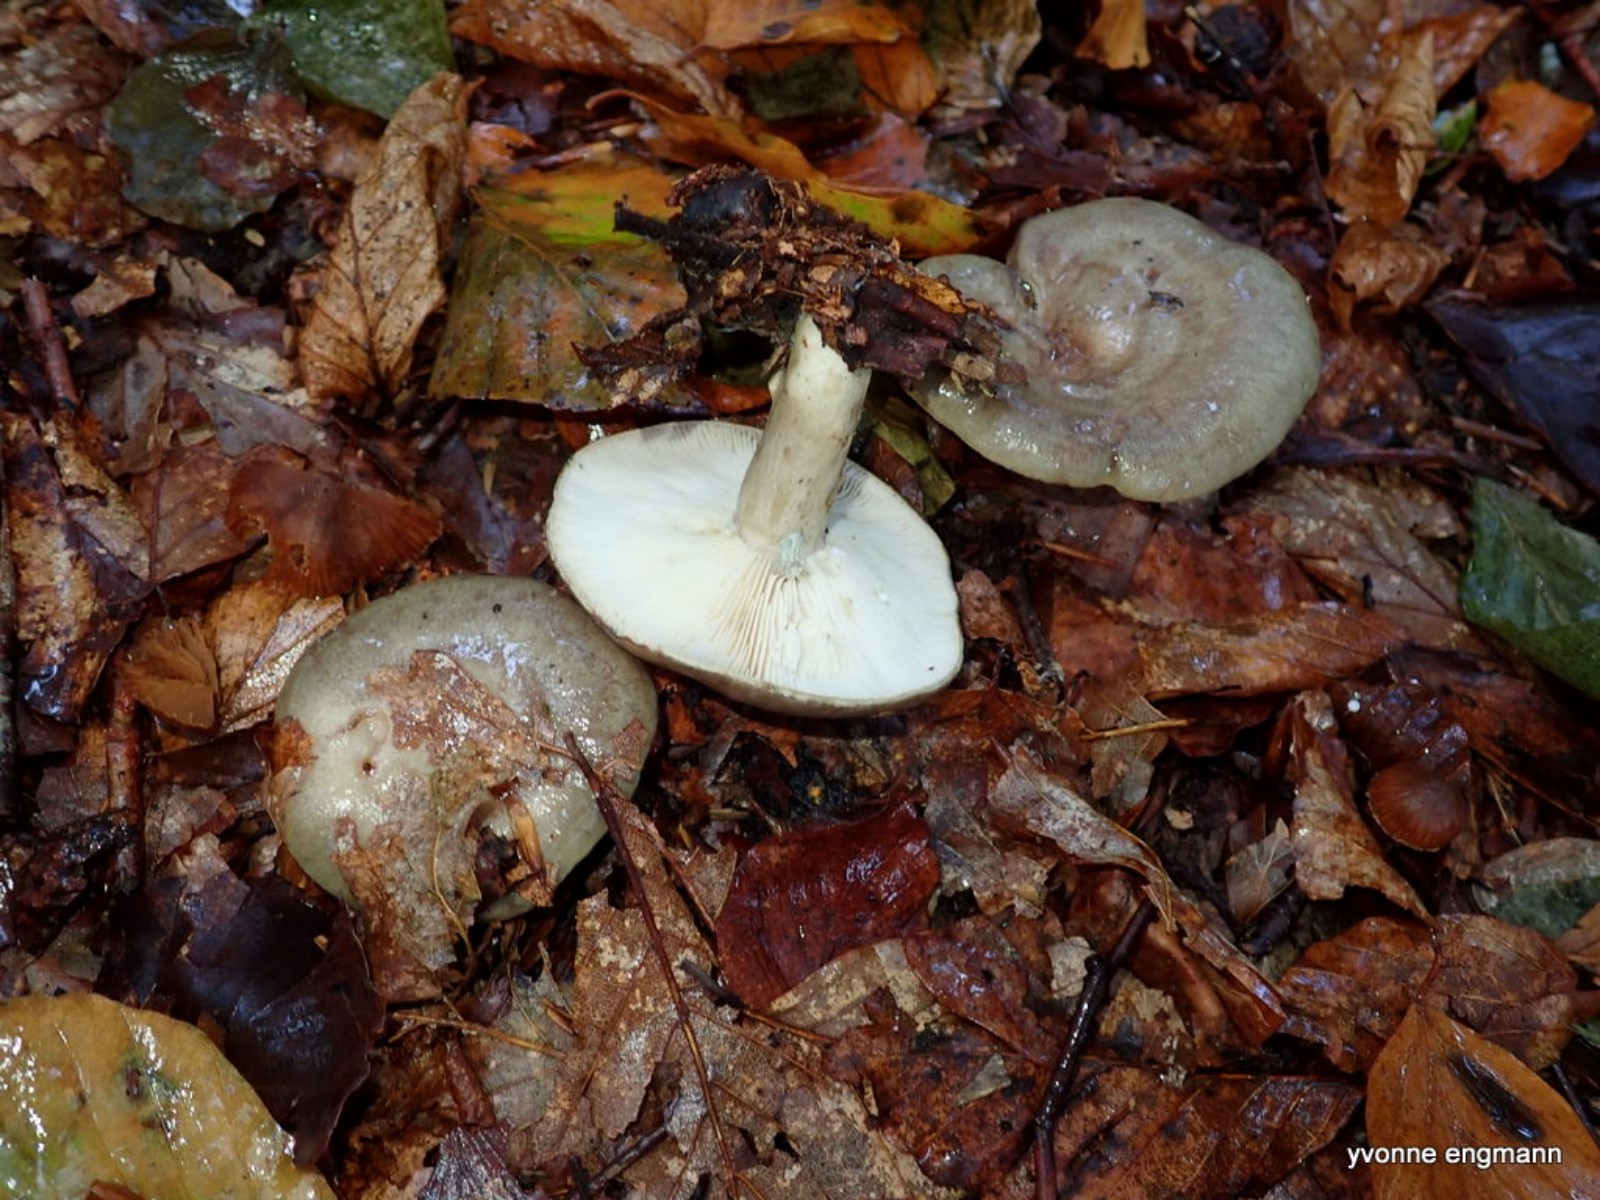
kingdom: Fungi
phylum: Basidiomycota
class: Agaricomycetes
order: Russulales
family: Russulaceae
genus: Lactarius
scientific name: Lactarius blennius
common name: dråbeplettet mælkehat
